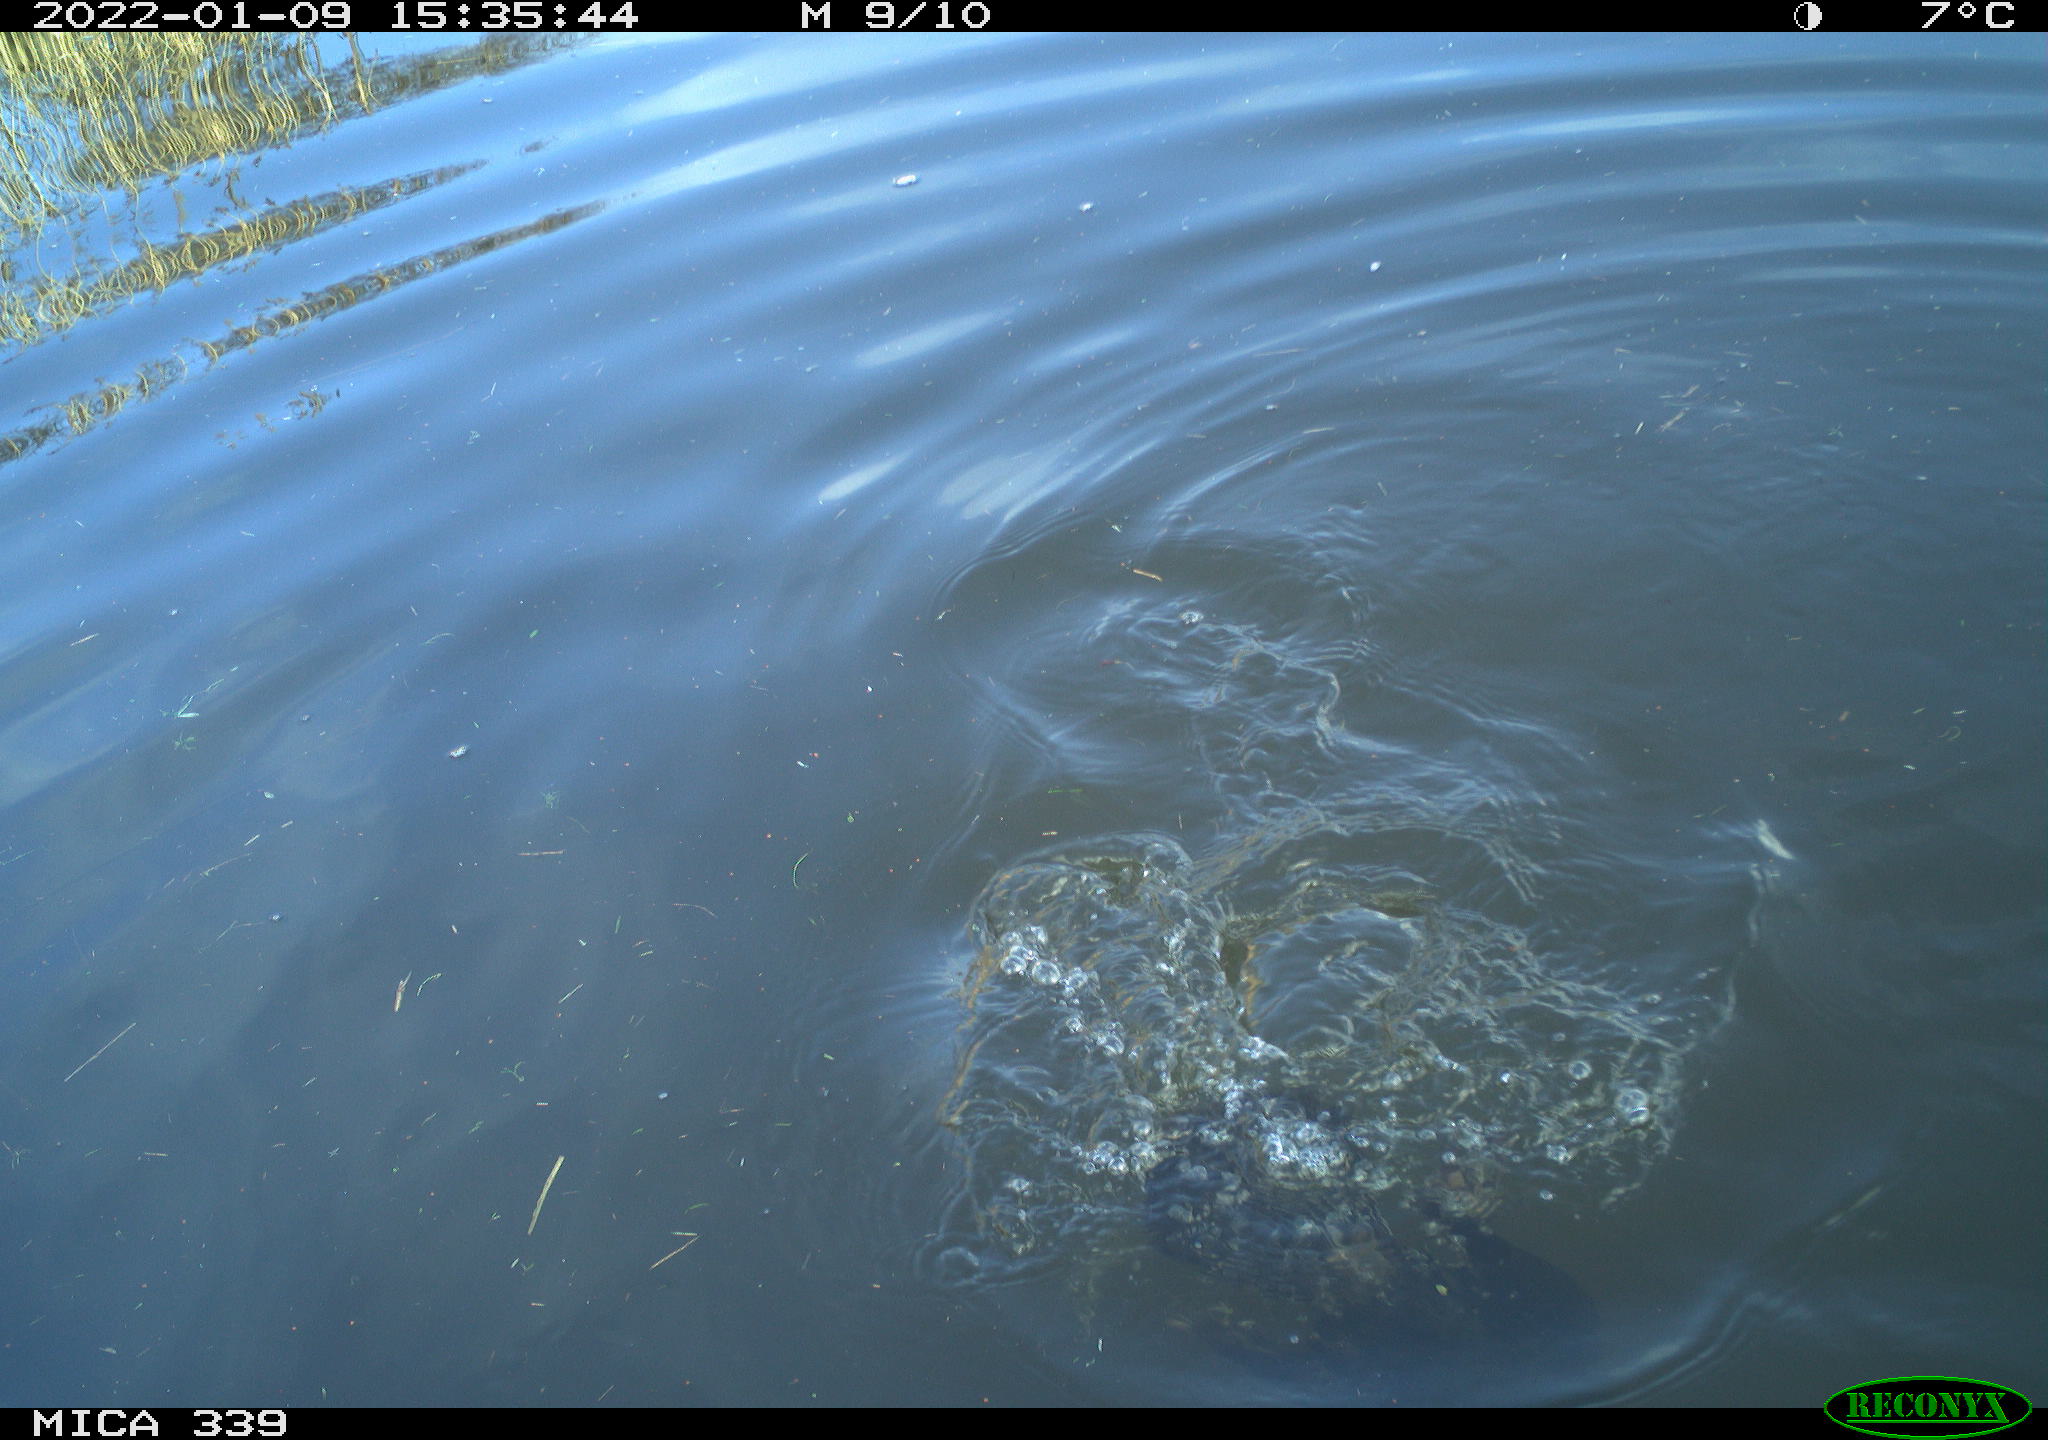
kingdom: Animalia
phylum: Chordata
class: Aves
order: Suliformes
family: Phalacrocoracidae
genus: Phalacrocorax
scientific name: Phalacrocorax carbo
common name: Great cormorant
